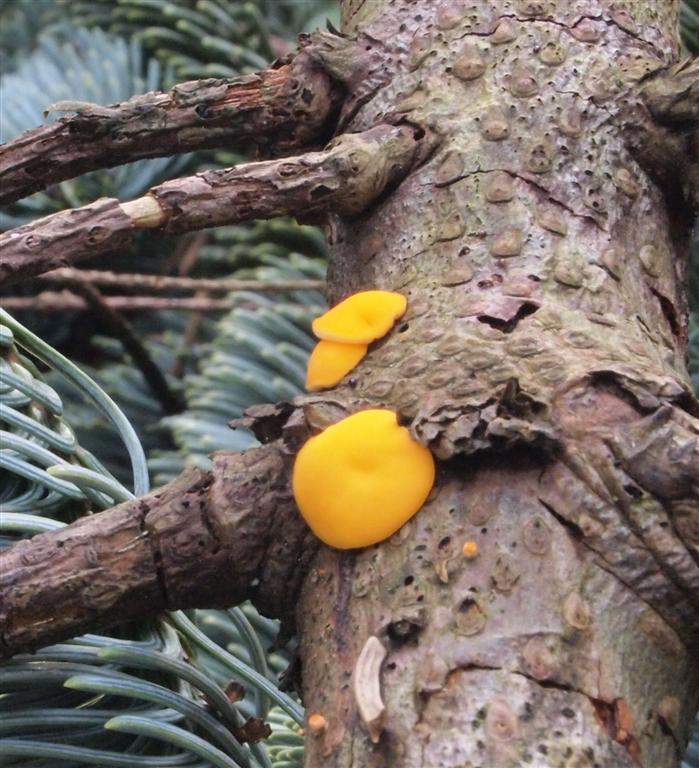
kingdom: Fungi
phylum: Ascomycota
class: Pezizomycetes
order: Pezizales
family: Sarcoscyphaceae
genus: Pithya
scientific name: Pithya vulgaris
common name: stor dukatbæger
